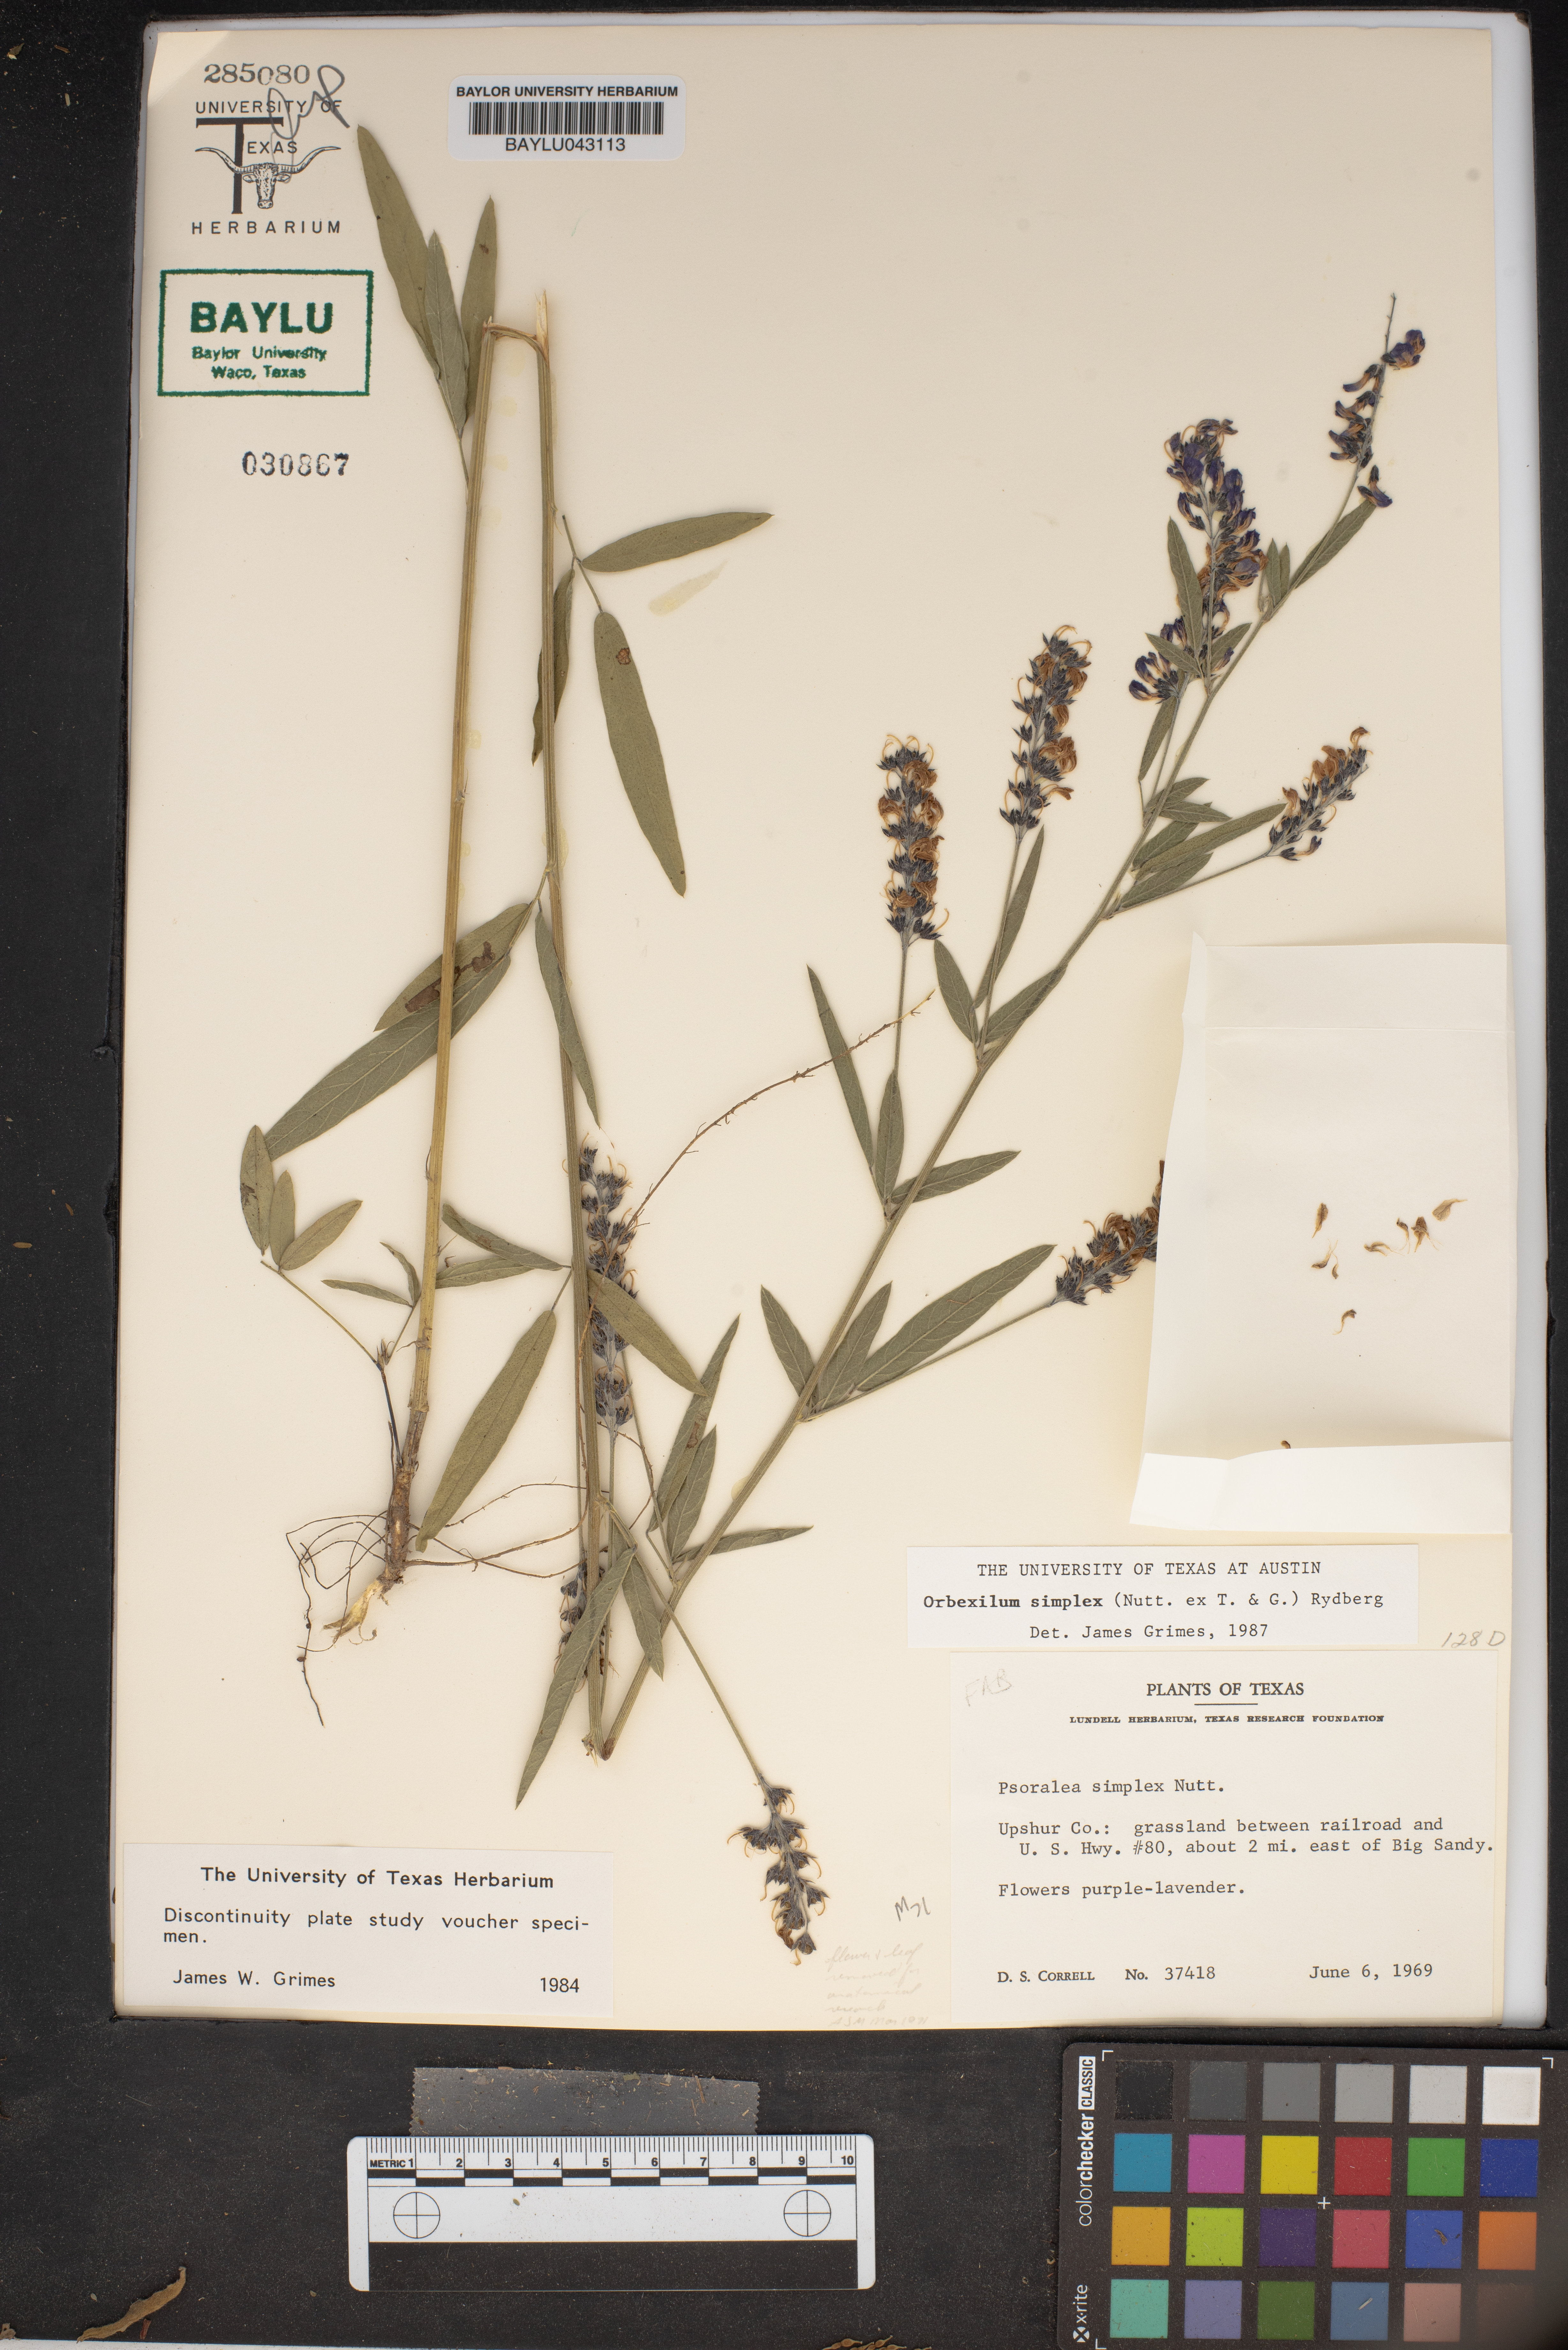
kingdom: Plantae
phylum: Tracheophyta
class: Magnoliopsida
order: Fabales
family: Fabaceae
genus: Orbexilum
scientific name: Orbexilum simplex
